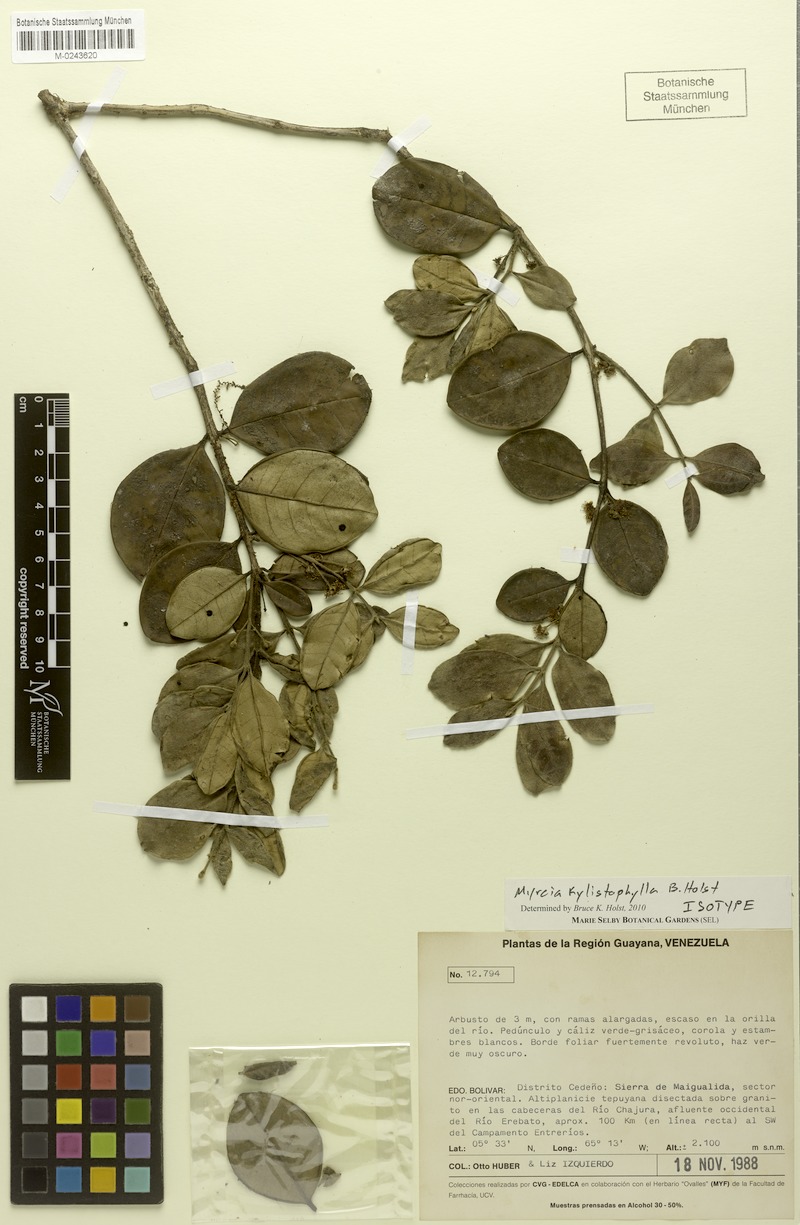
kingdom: Plantae
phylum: Tracheophyta
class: Magnoliopsida
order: Myrtales
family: Myrtaceae
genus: Myrcia
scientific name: Myrcia kylistophylla
